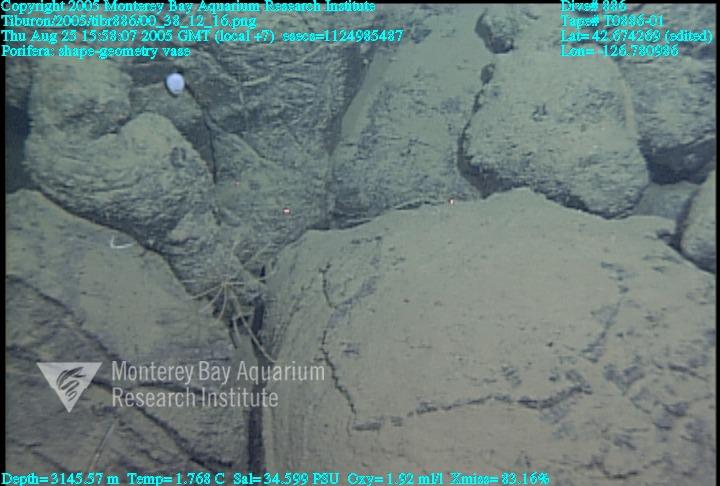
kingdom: Animalia
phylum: Porifera
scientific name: Porifera
